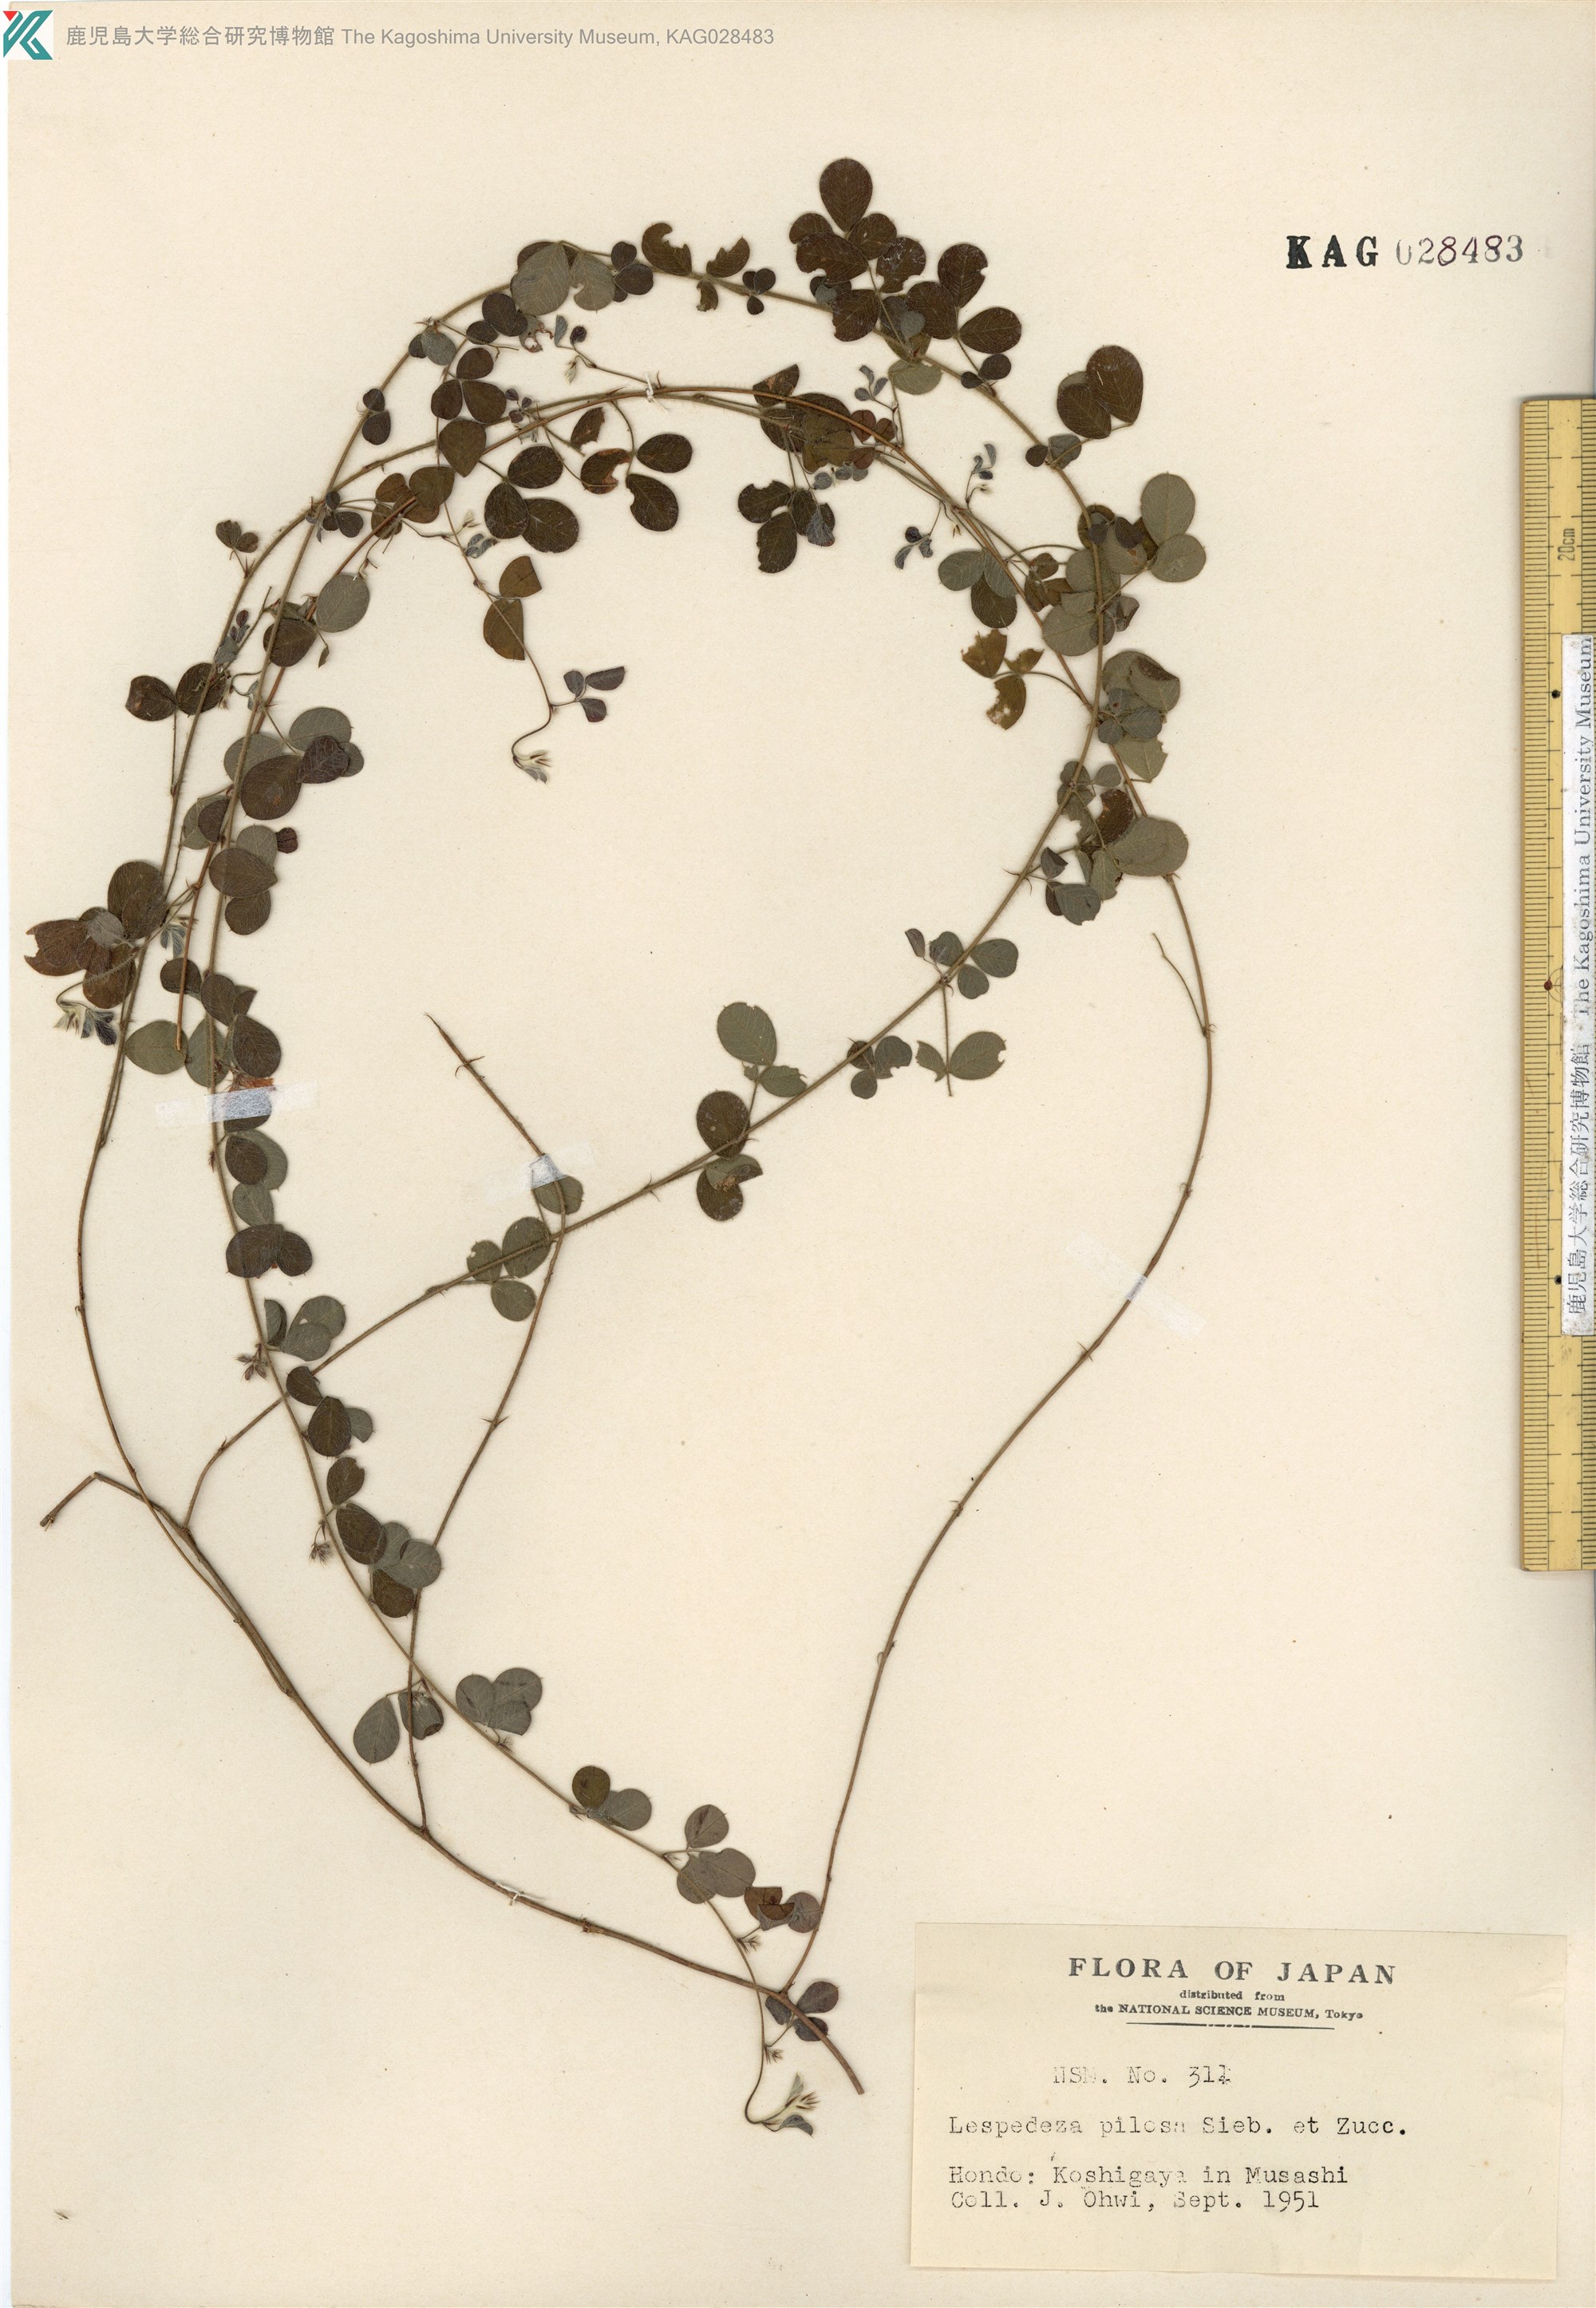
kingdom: Plantae
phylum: Tracheophyta
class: Magnoliopsida
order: Fabales
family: Fabaceae
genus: Lespedeza
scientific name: Lespedeza pilosa
